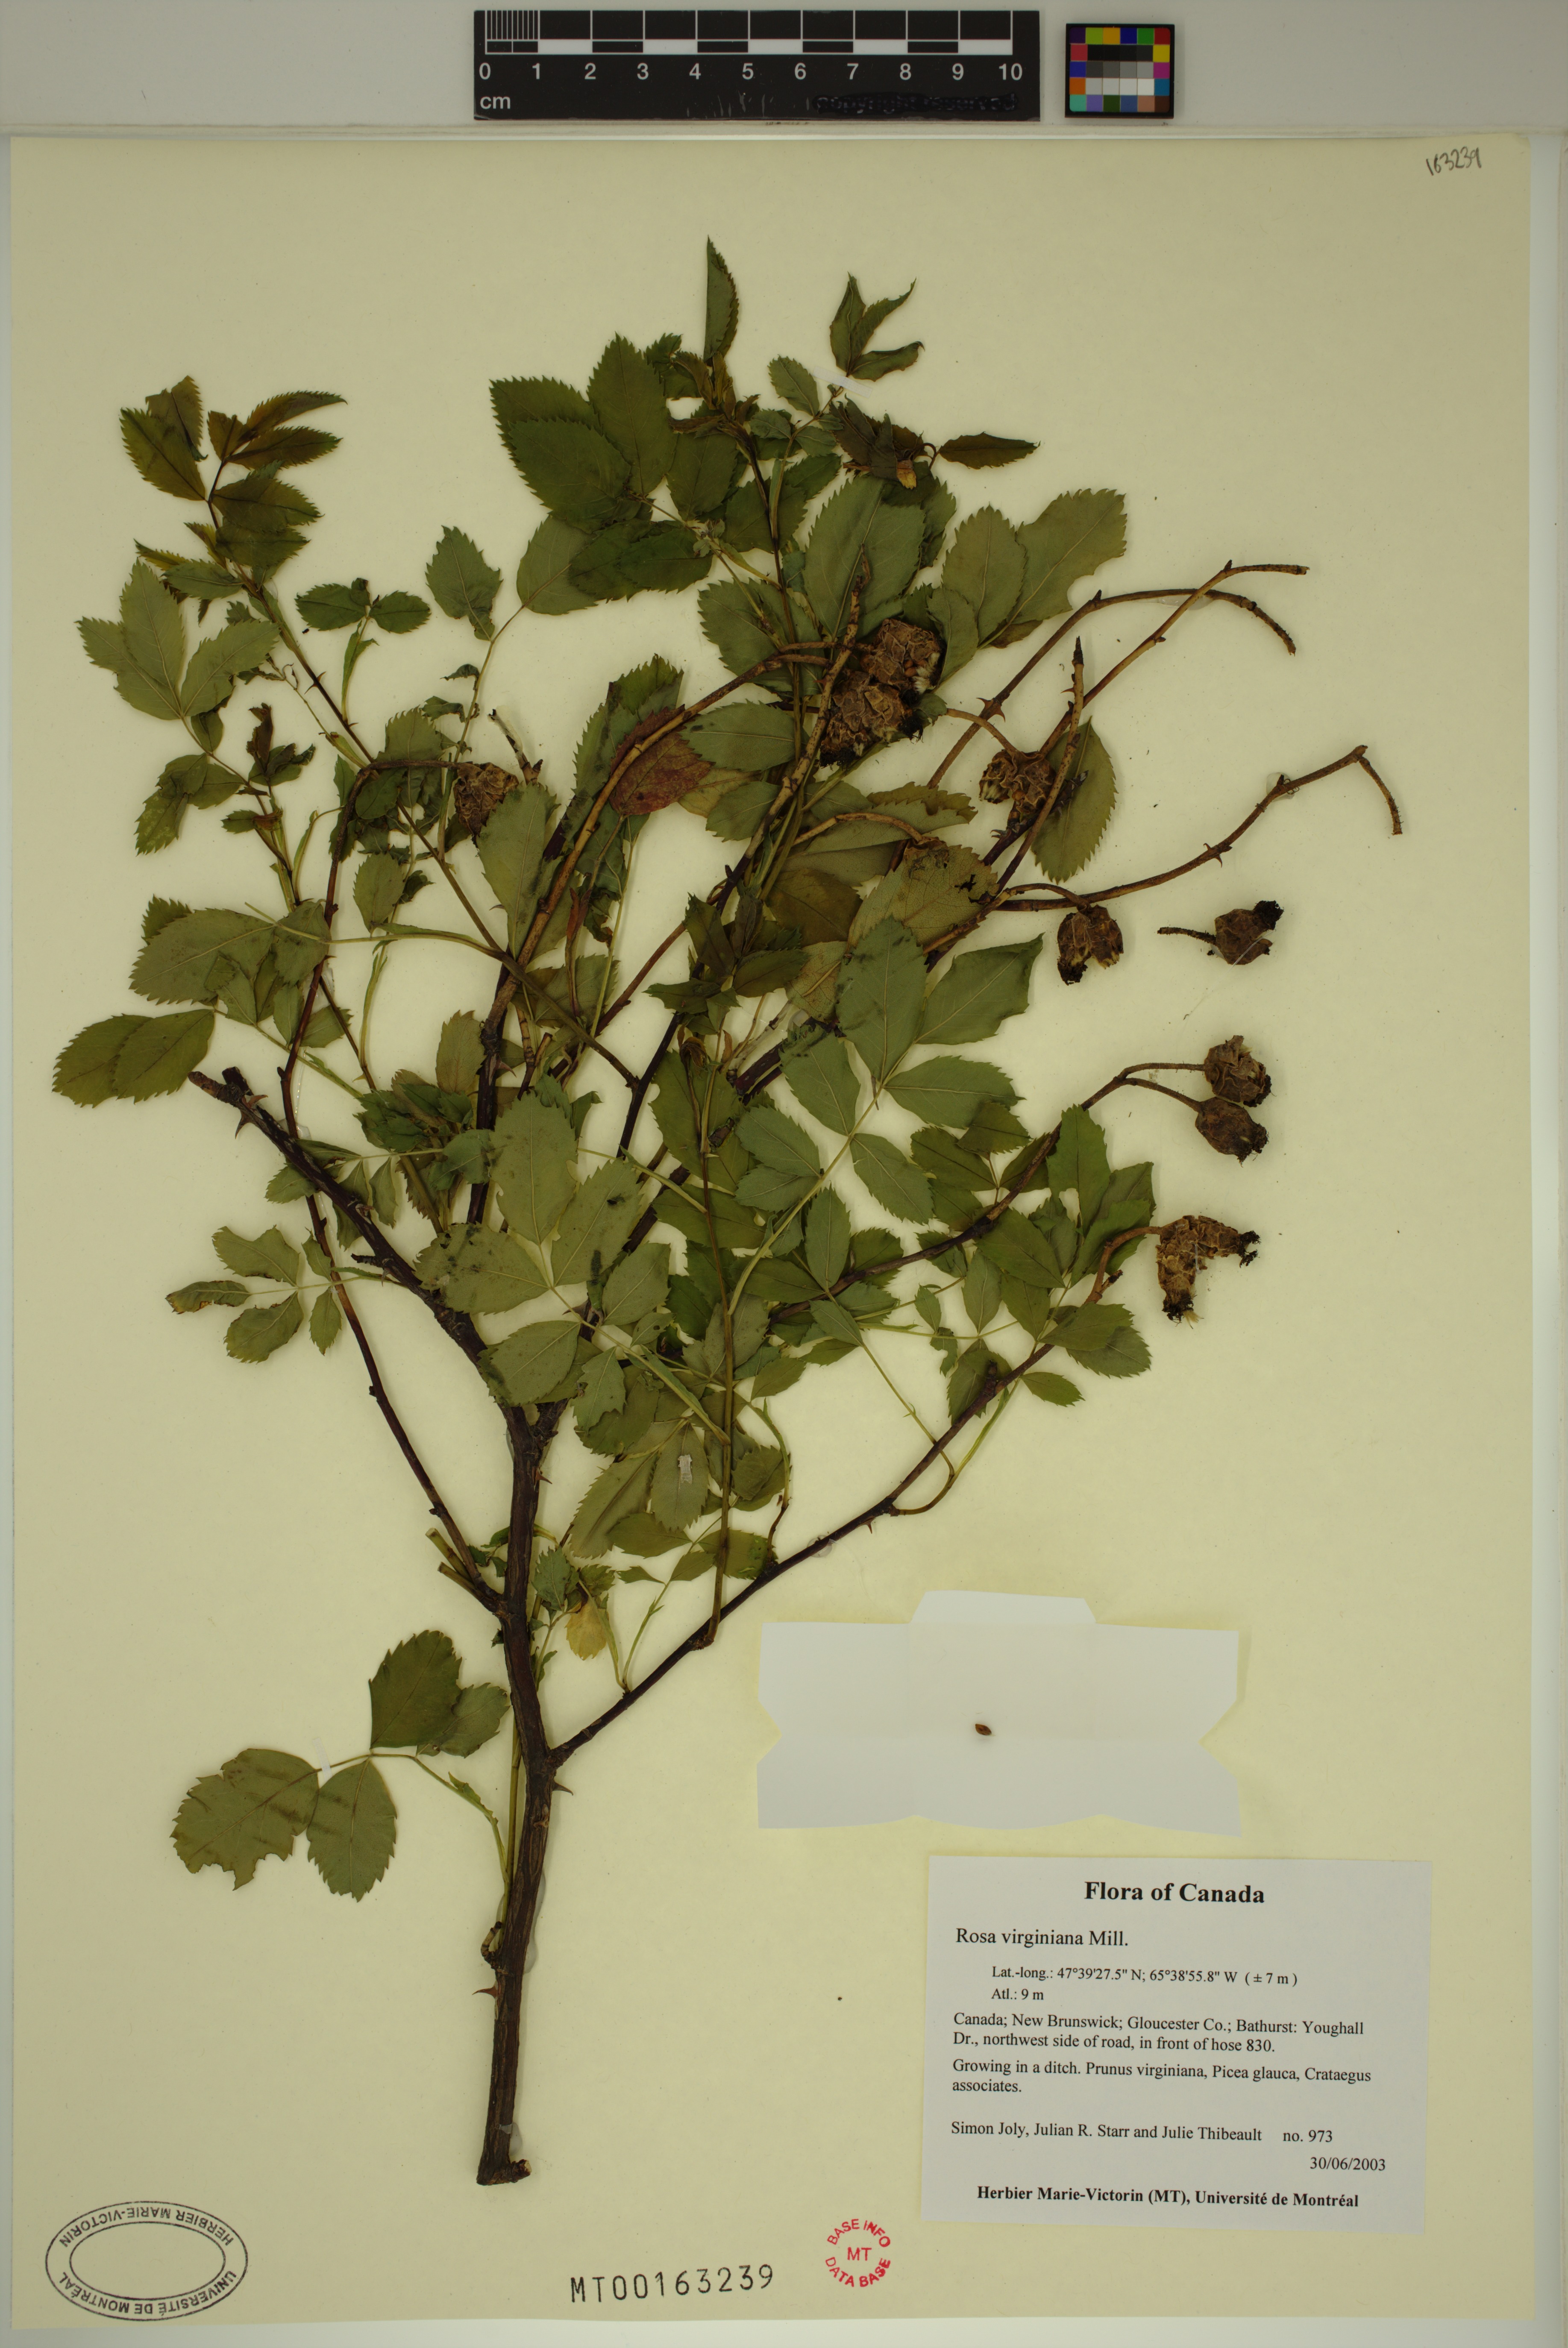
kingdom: Plantae
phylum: Tracheophyta
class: Magnoliopsida
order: Rosales
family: Rosaceae
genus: Rosa
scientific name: Rosa carolina
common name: Pasture rose
